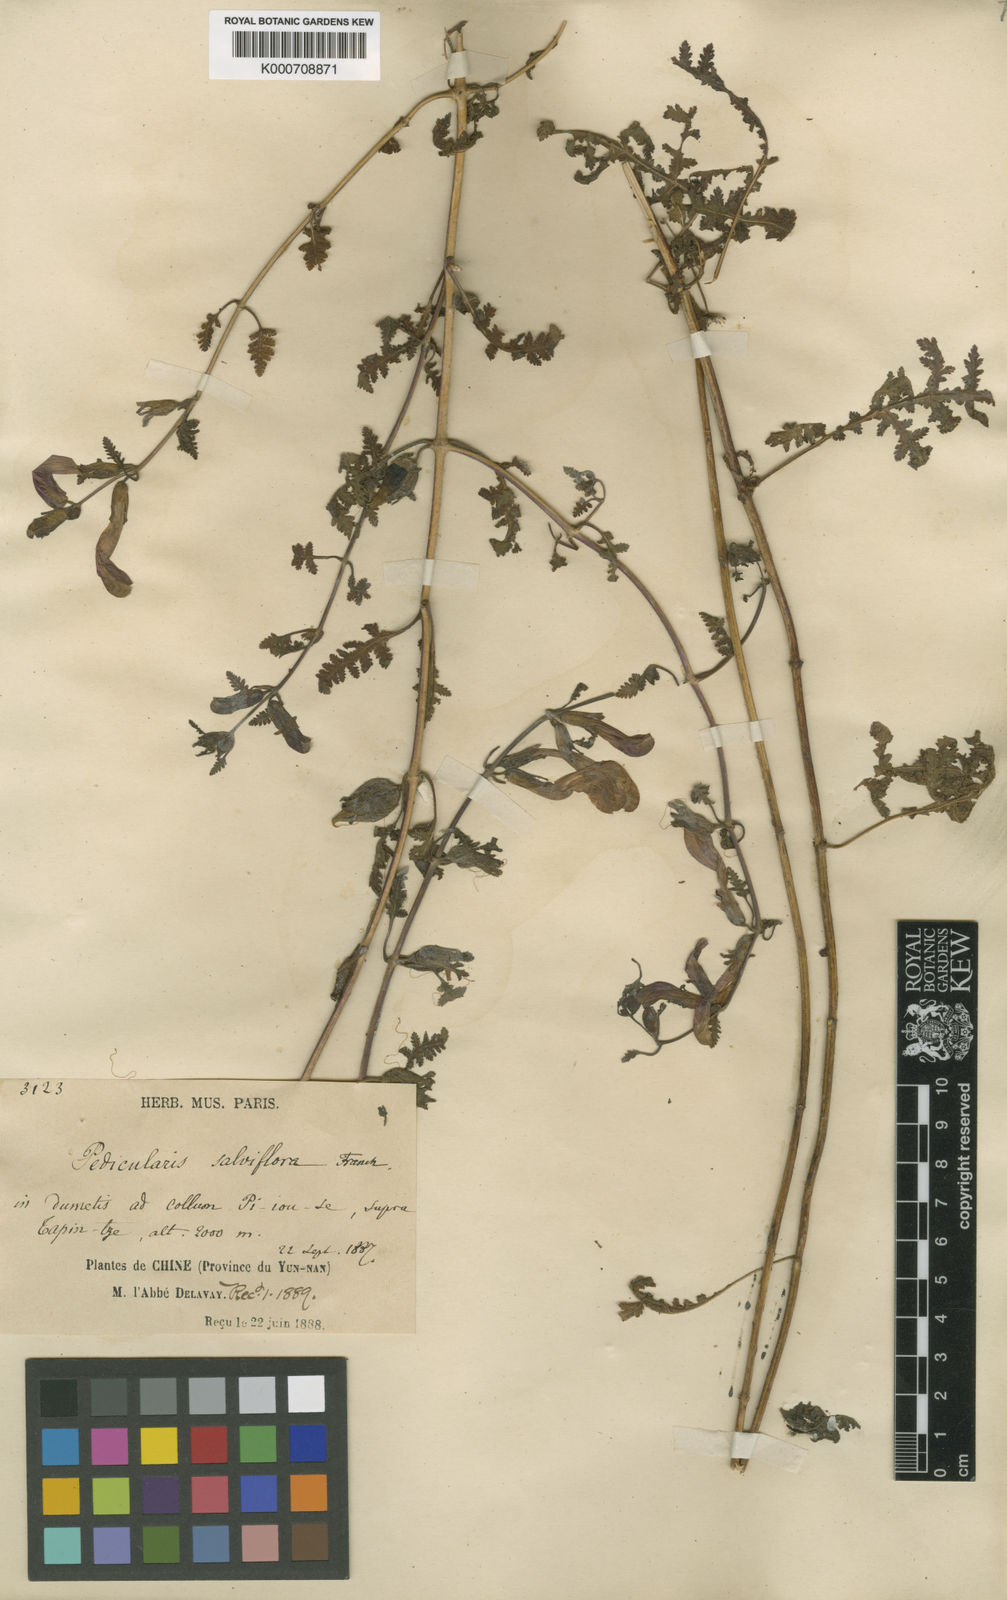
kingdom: Plantae
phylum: Tracheophyta
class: Magnoliopsida
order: Lamiales
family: Orobanchaceae
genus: Pedicularis
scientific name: Pedicularis
